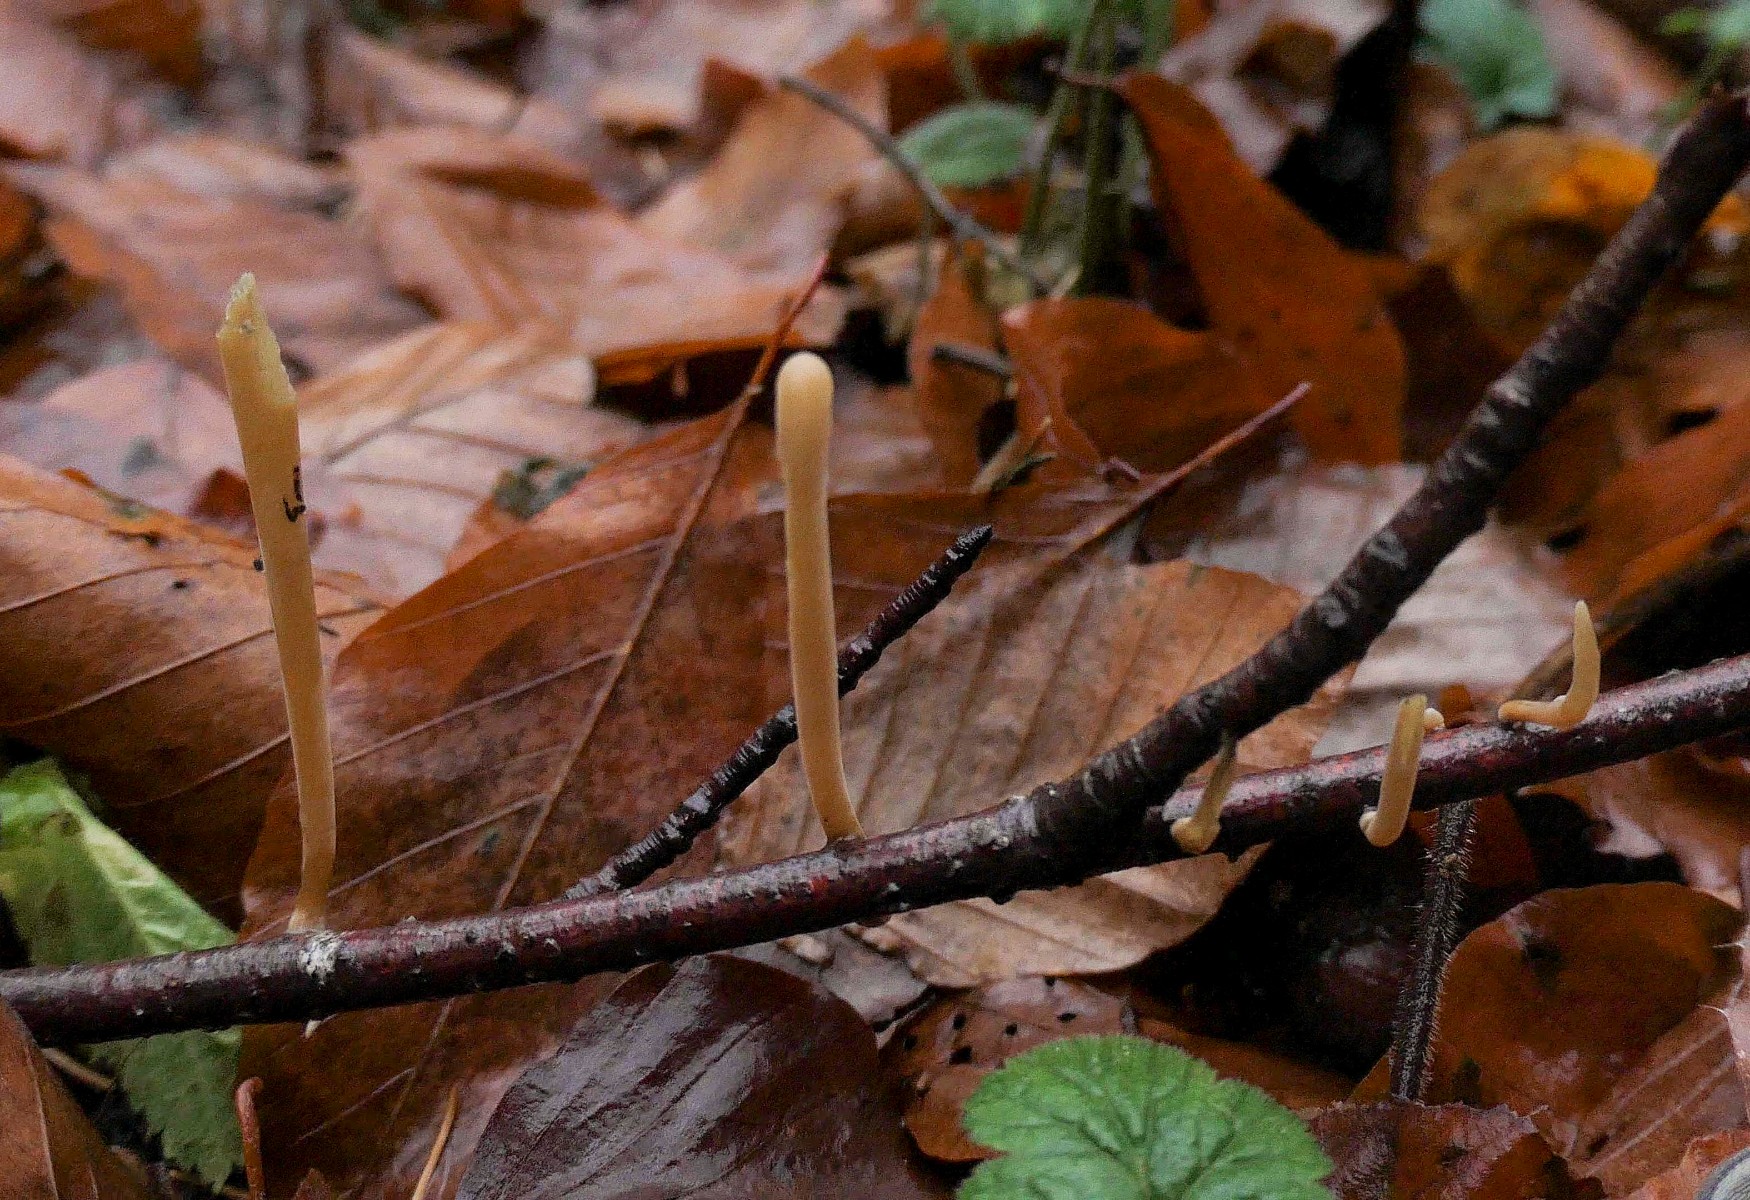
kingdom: Fungi
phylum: Basidiomycota
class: Agaricomycetes
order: Agaricales
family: Typhulaceae
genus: Typhula
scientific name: Typhula fistulosa
